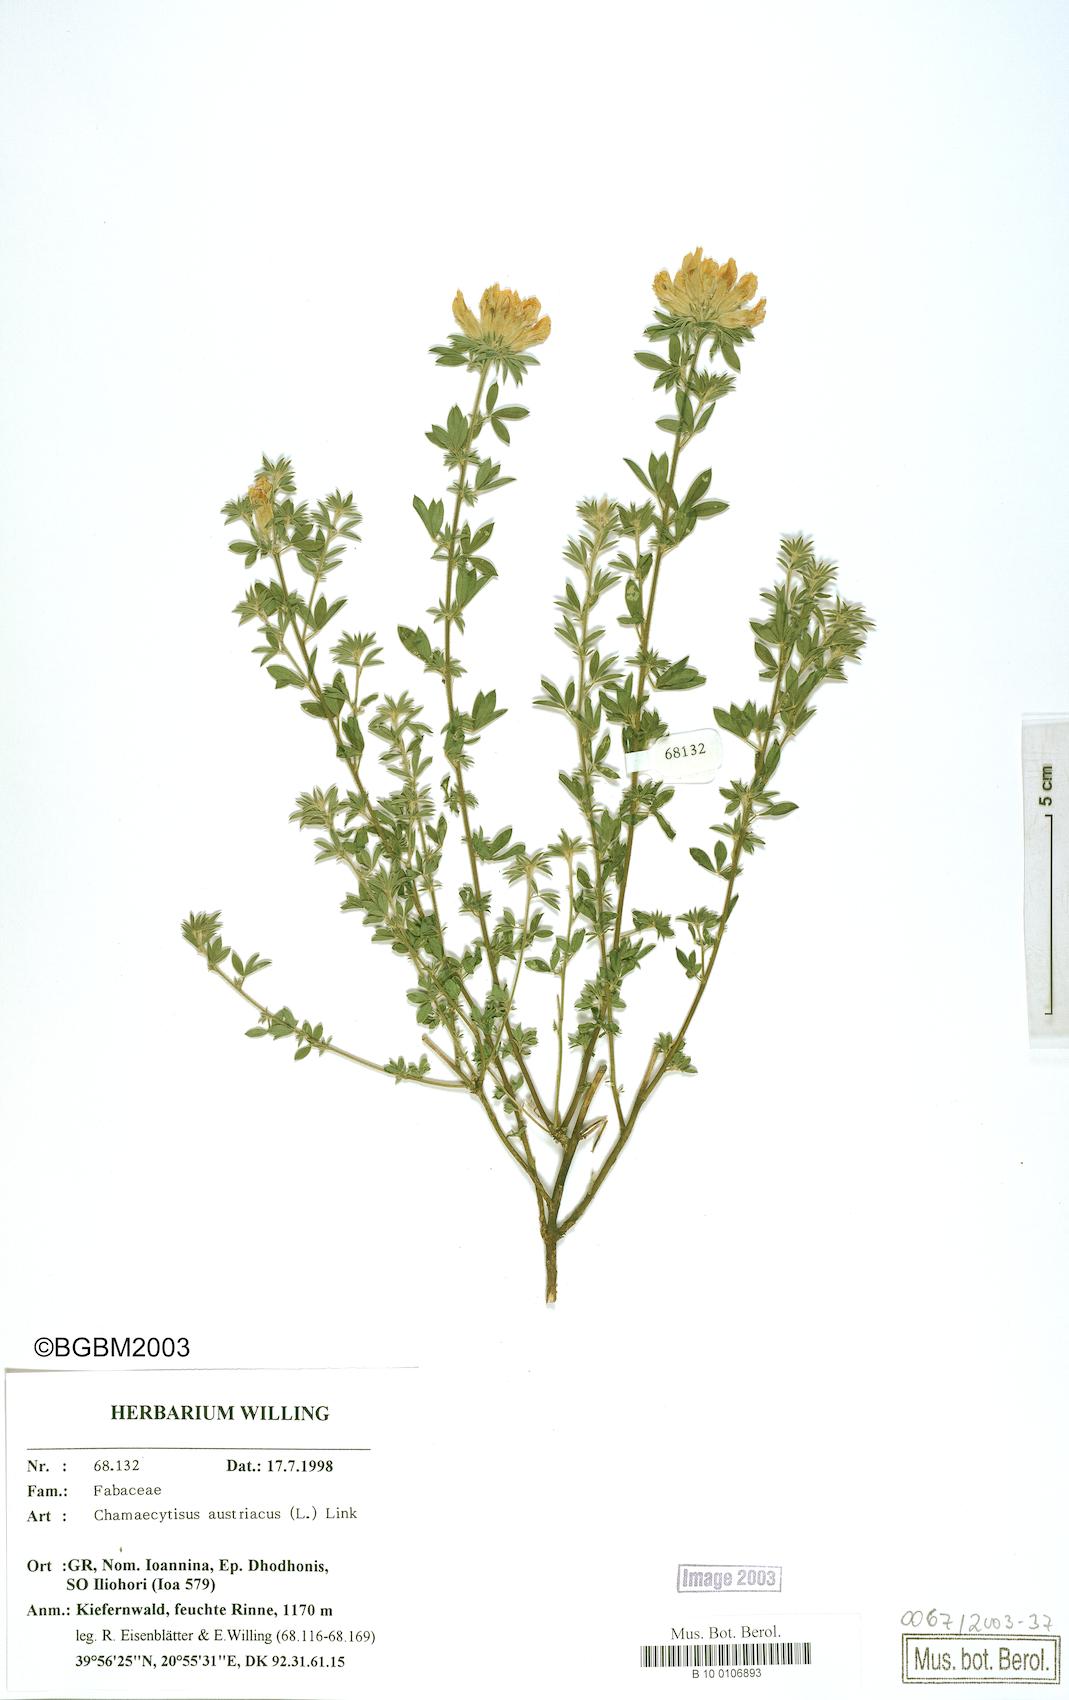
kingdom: Plantae
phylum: Tracheophyta
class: Magnoliopsida
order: Fabales
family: Fabaceae
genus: Chamaecytisus
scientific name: Chamaecytisus austriacus
